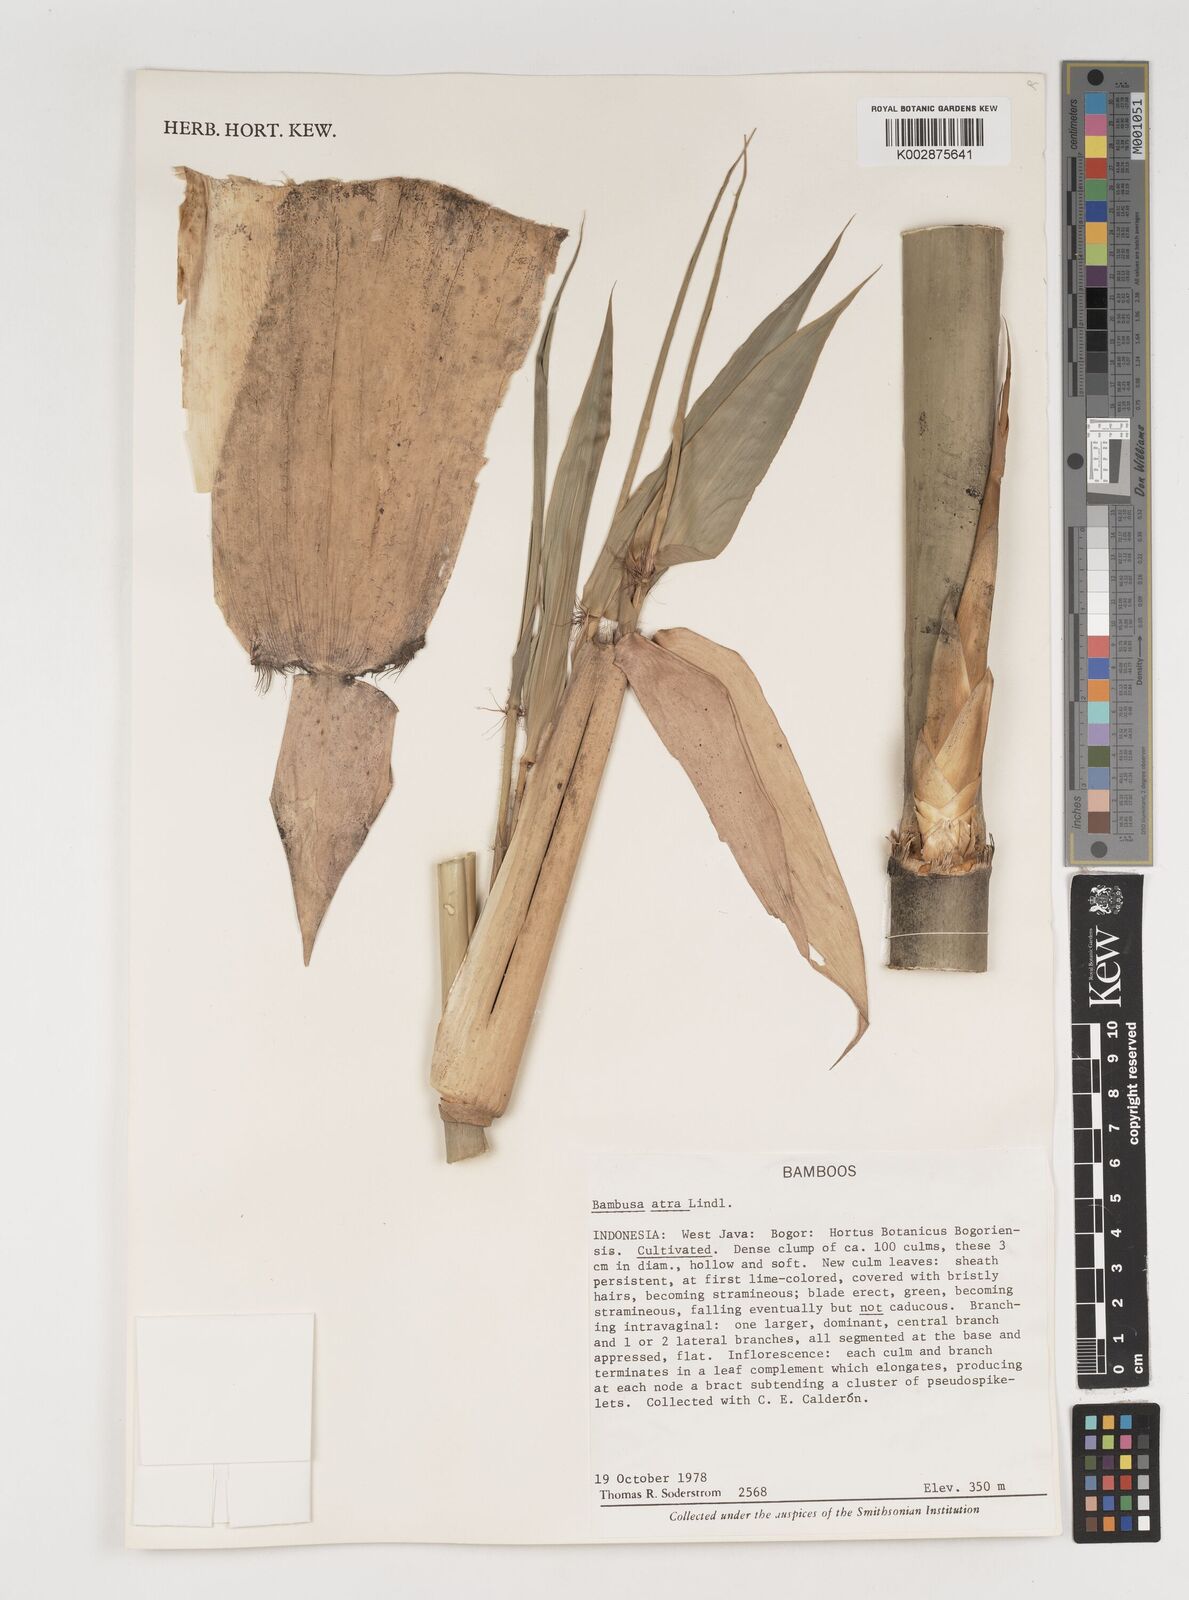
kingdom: Plantae
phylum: Tracheophyta
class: Liliopsida
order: Poales
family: Poaceae
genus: Neololeba
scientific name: Neololeba atra
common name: Cape bamboo
